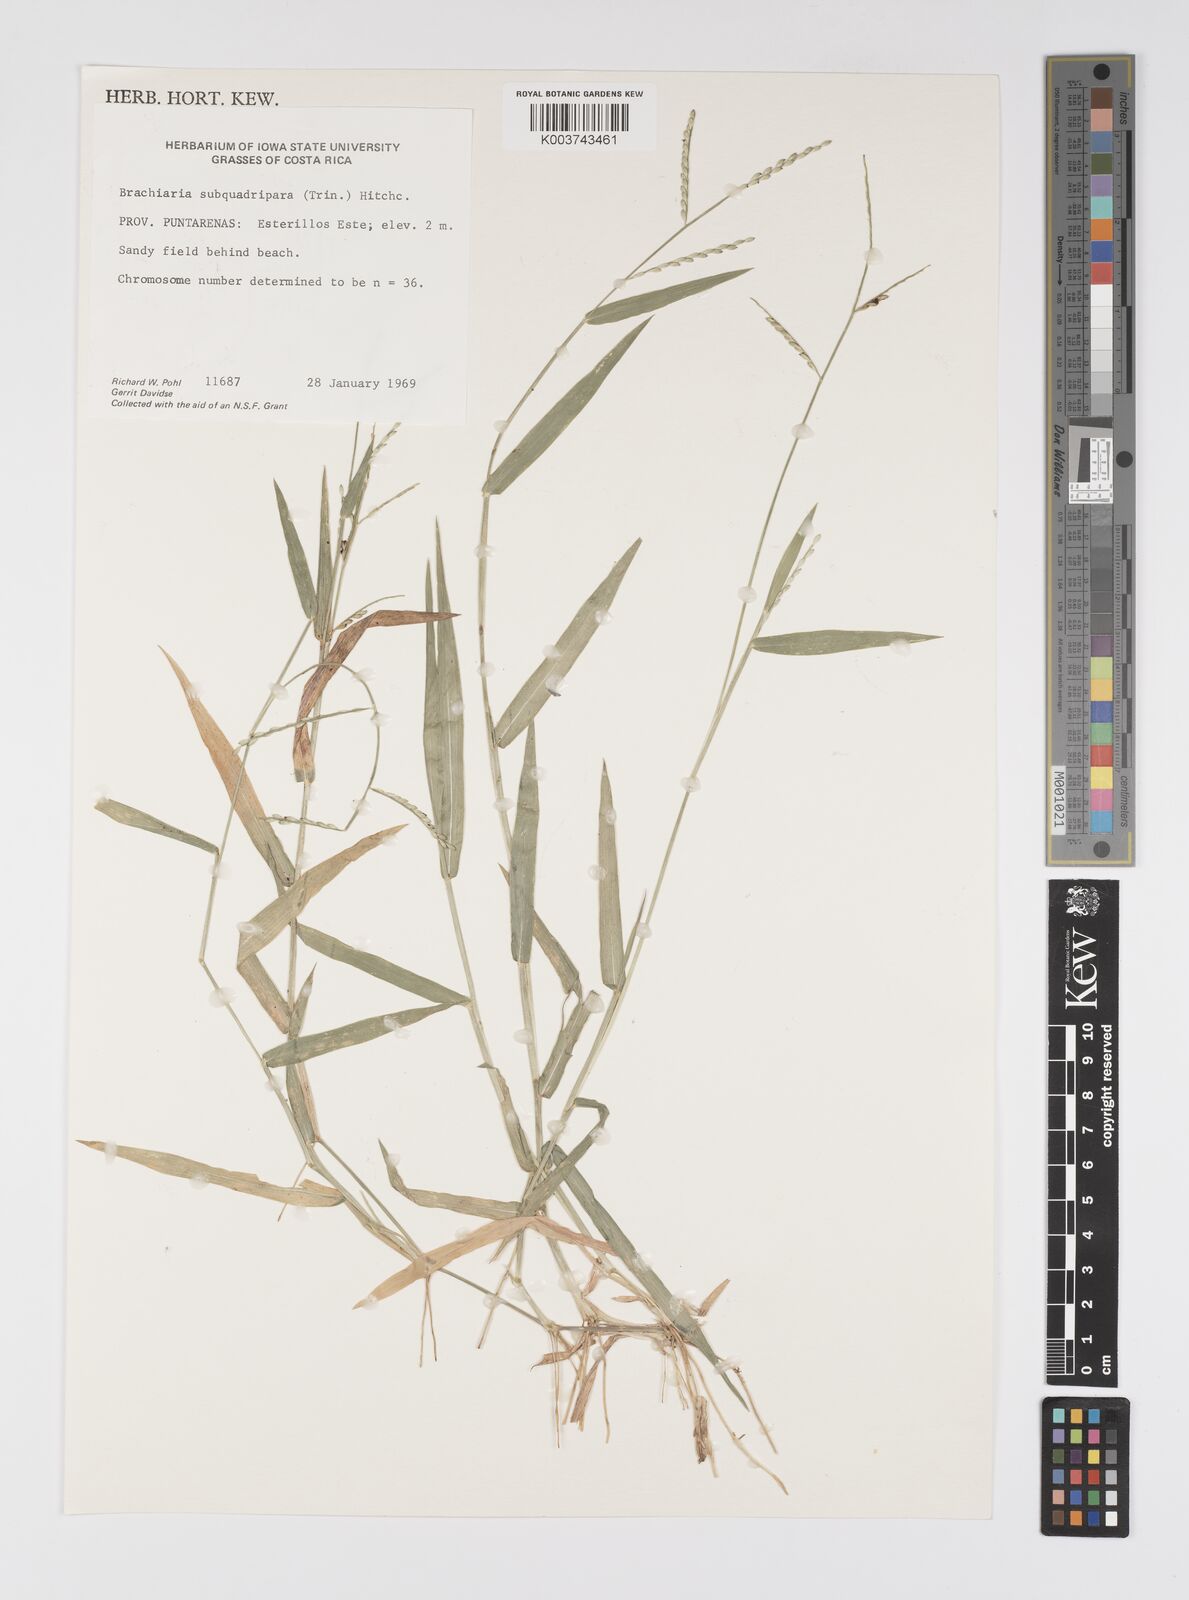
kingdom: Plantae
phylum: Tracheophyta
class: Liliopsida
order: Poales
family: Poaceae
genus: Urochloa
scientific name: Urochloa subquadripara
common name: Armgrass millet
